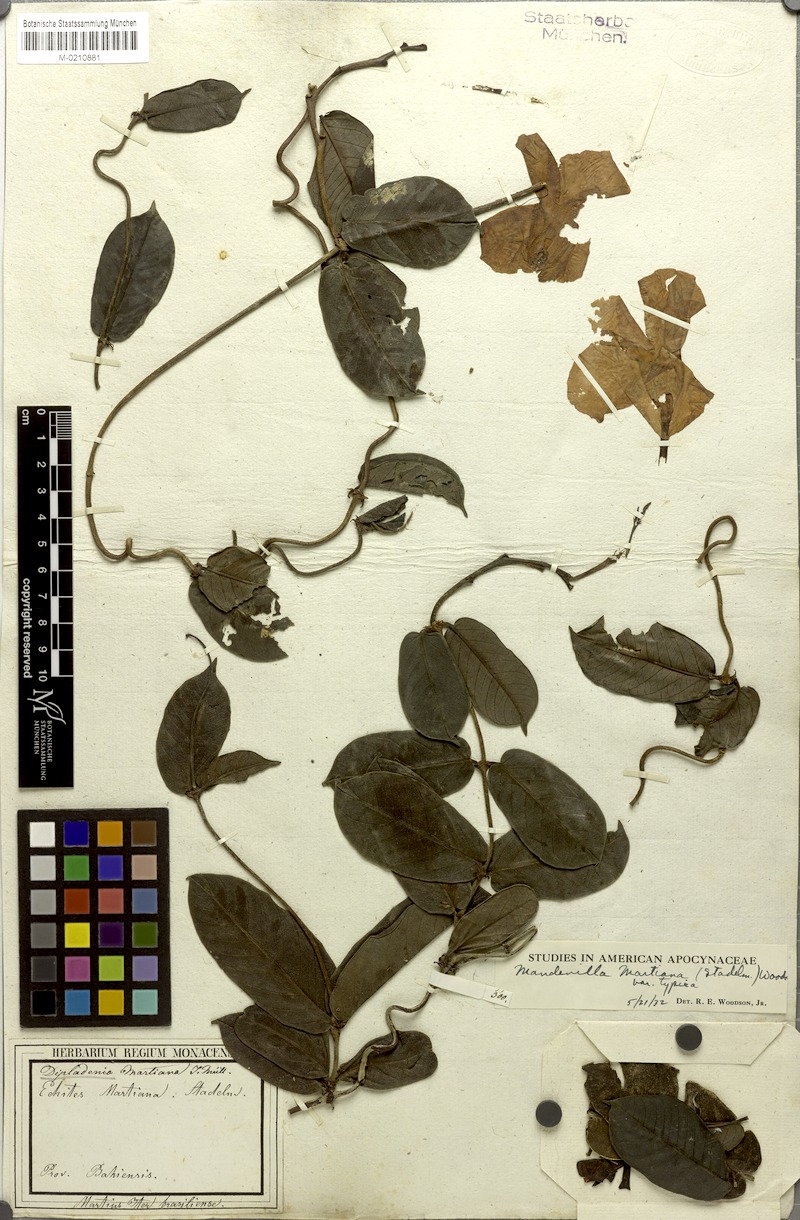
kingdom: Plantae
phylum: Tracheophyta
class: Magnoliopsida
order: Gentianales
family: Apocynaceae
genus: Mandevilla
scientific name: Mandevilla martiana
